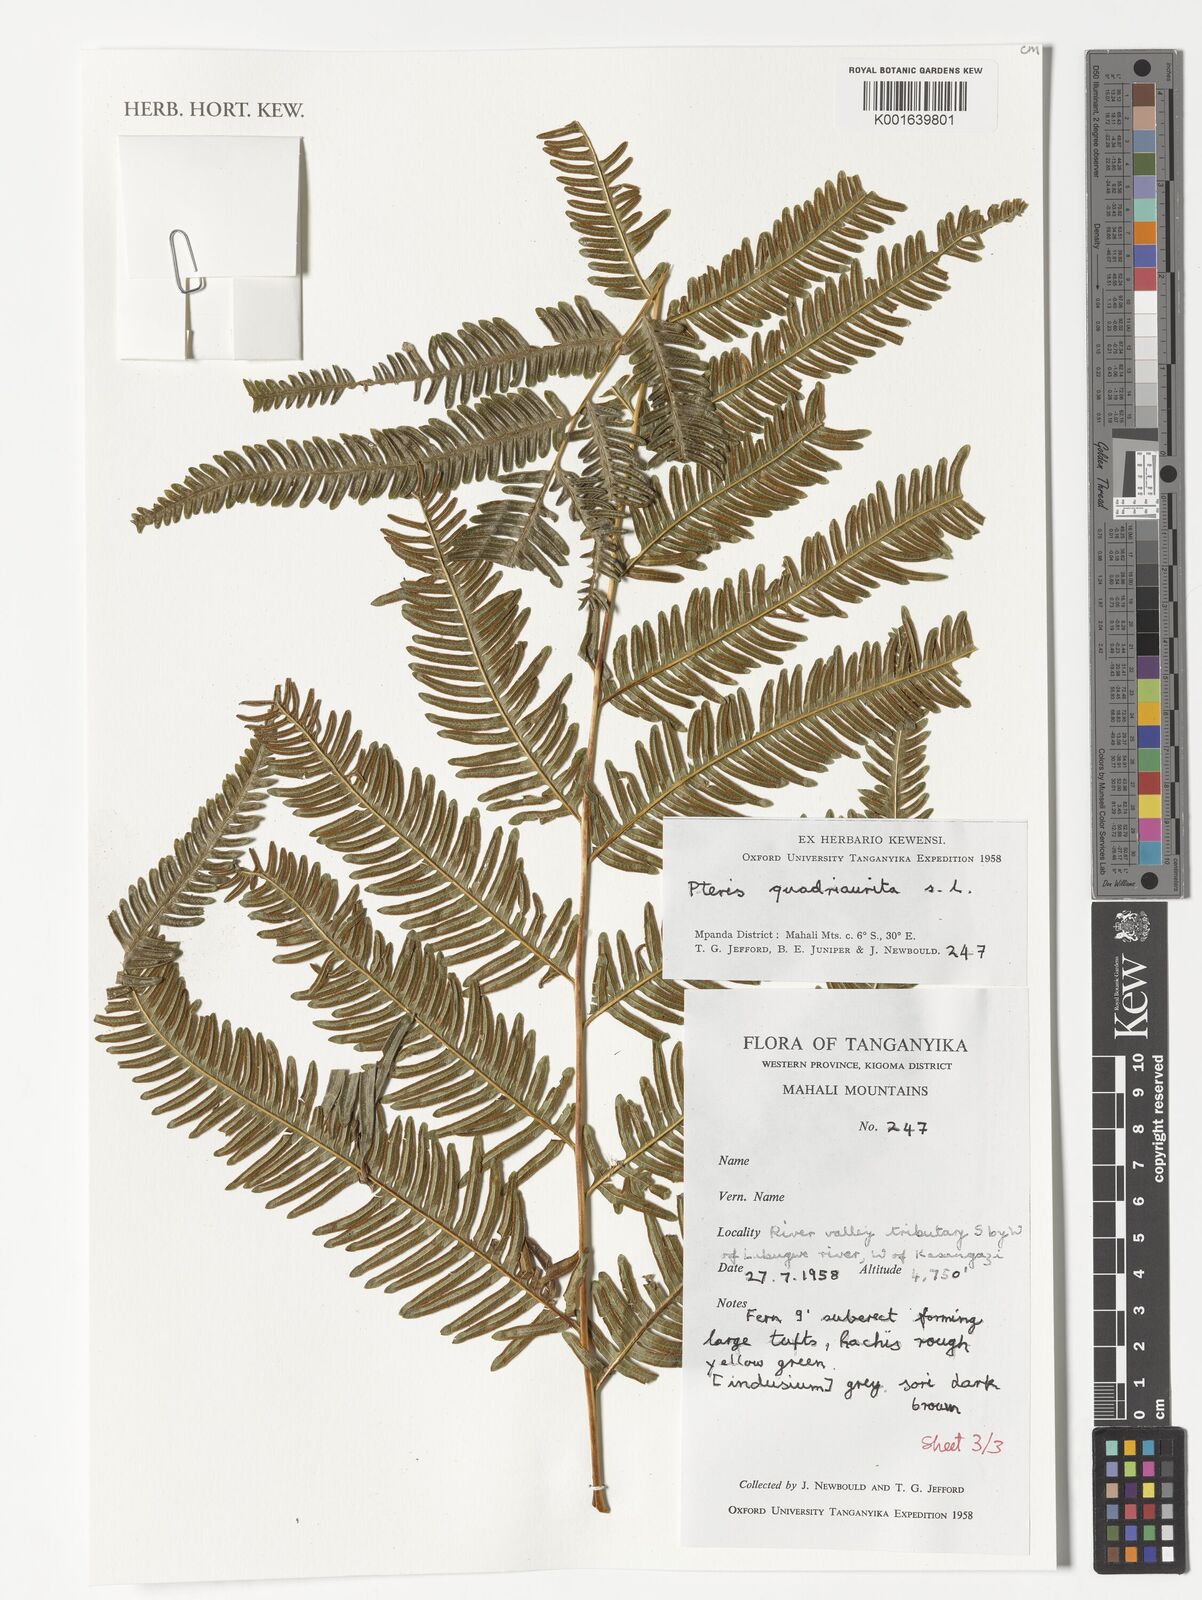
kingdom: Plantae
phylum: Tracheophyta
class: Polypodiopsida
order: Polypodiales
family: Pteridaceae
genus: Pteris
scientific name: Pteris quadriaurita
